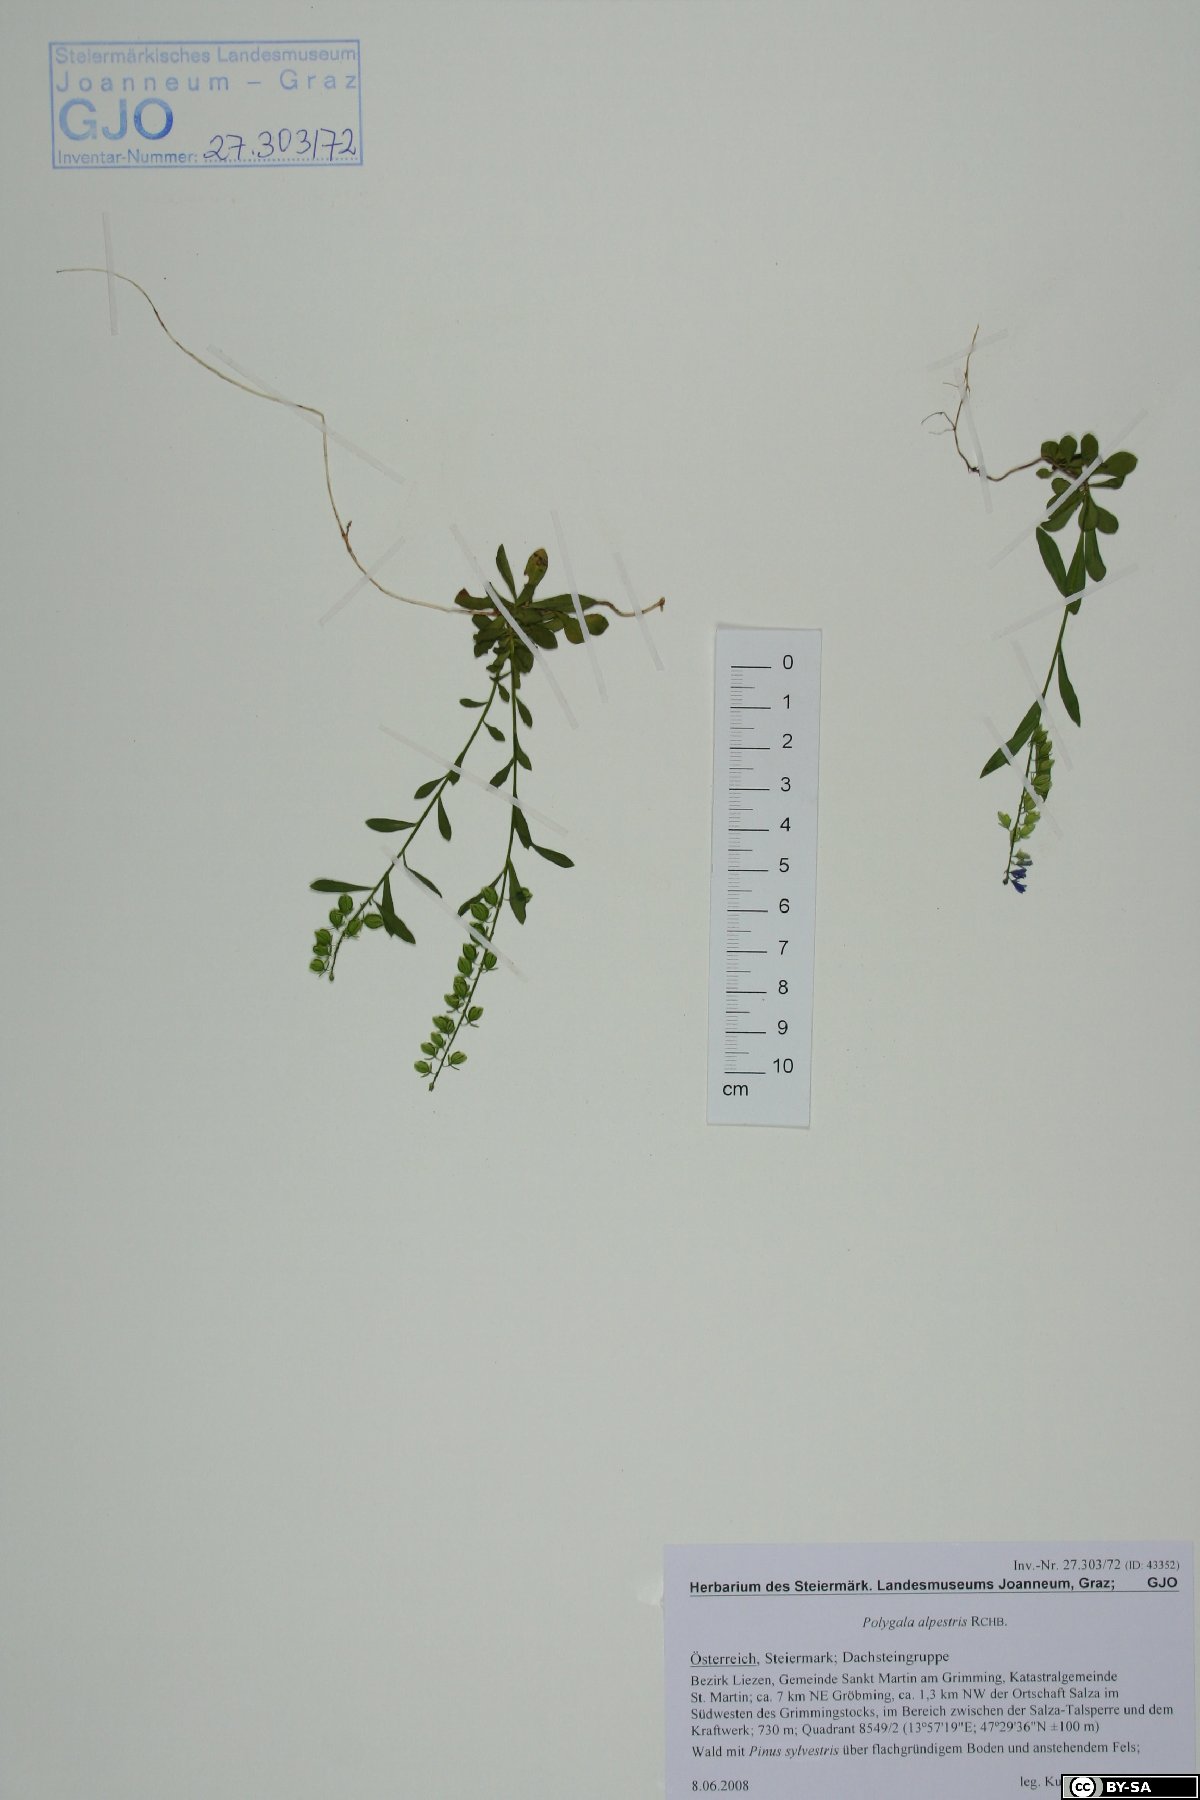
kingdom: Plantae
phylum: Tracheophyta
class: Magnoliopsida
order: Fabales
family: Polygalaceae
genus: Polygala
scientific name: Polygala alpestris
